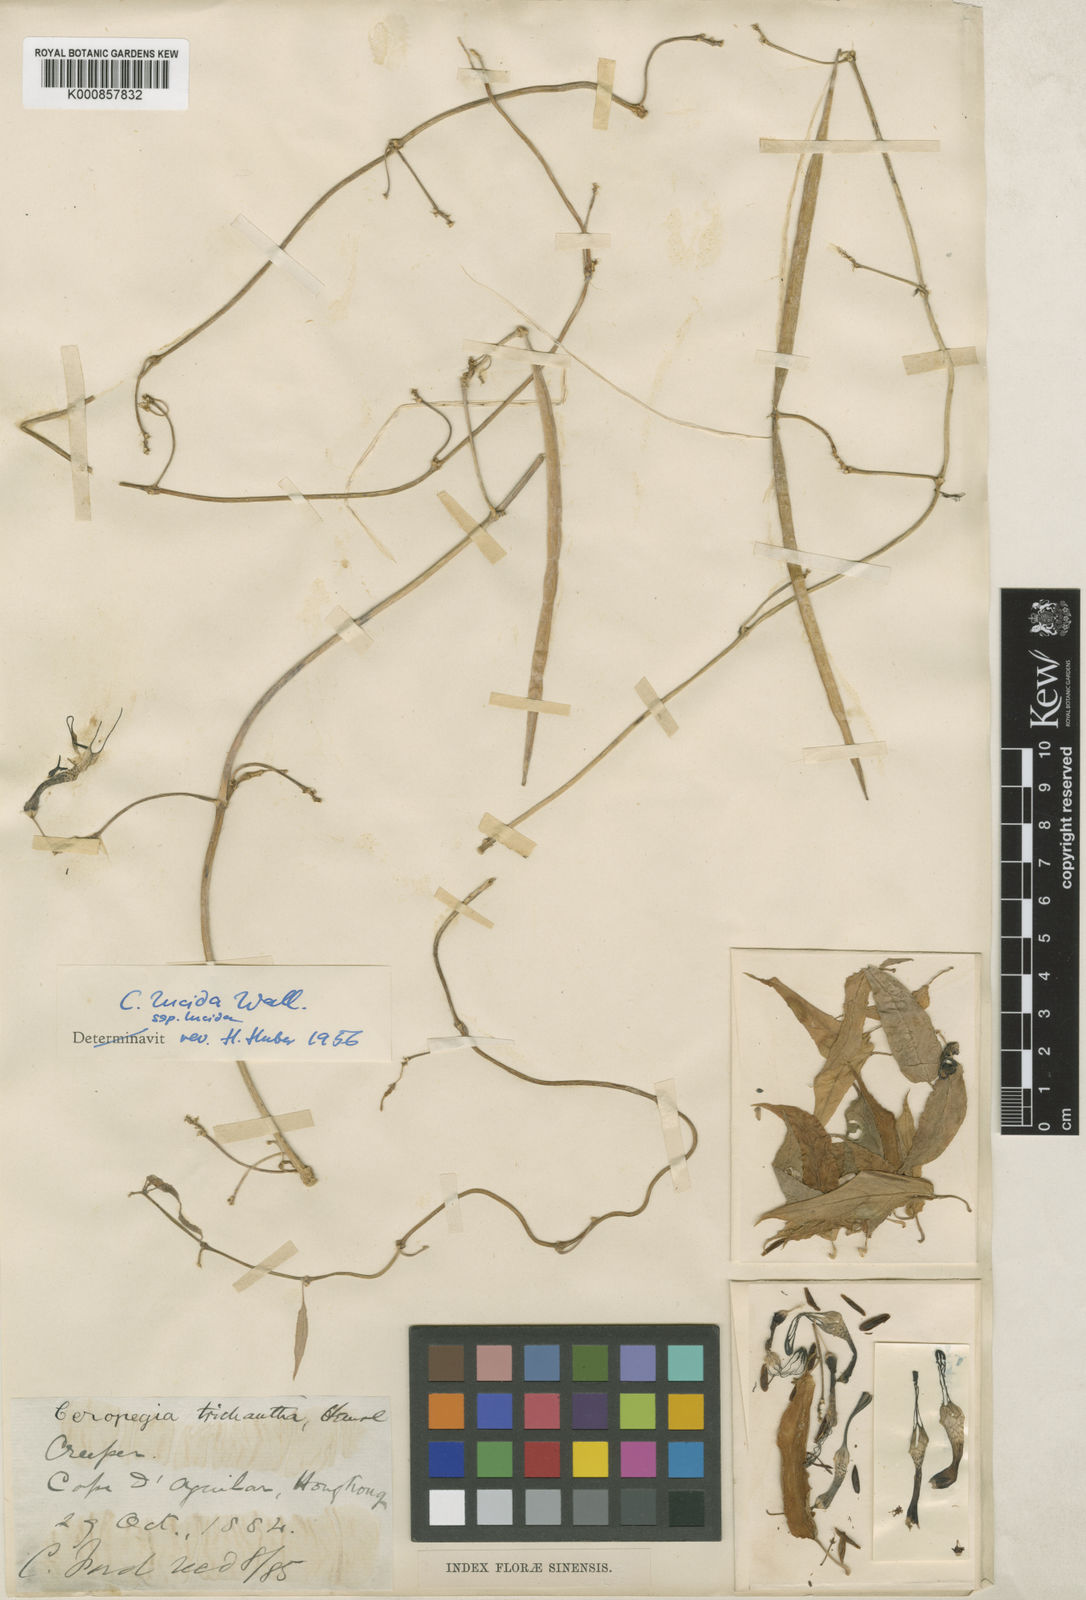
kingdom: Plantae
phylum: Tracheophyta
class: Magnoliopsida
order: Gentianales
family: Apocynaceae
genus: Ceropegia
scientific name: Ceropegia lucida
